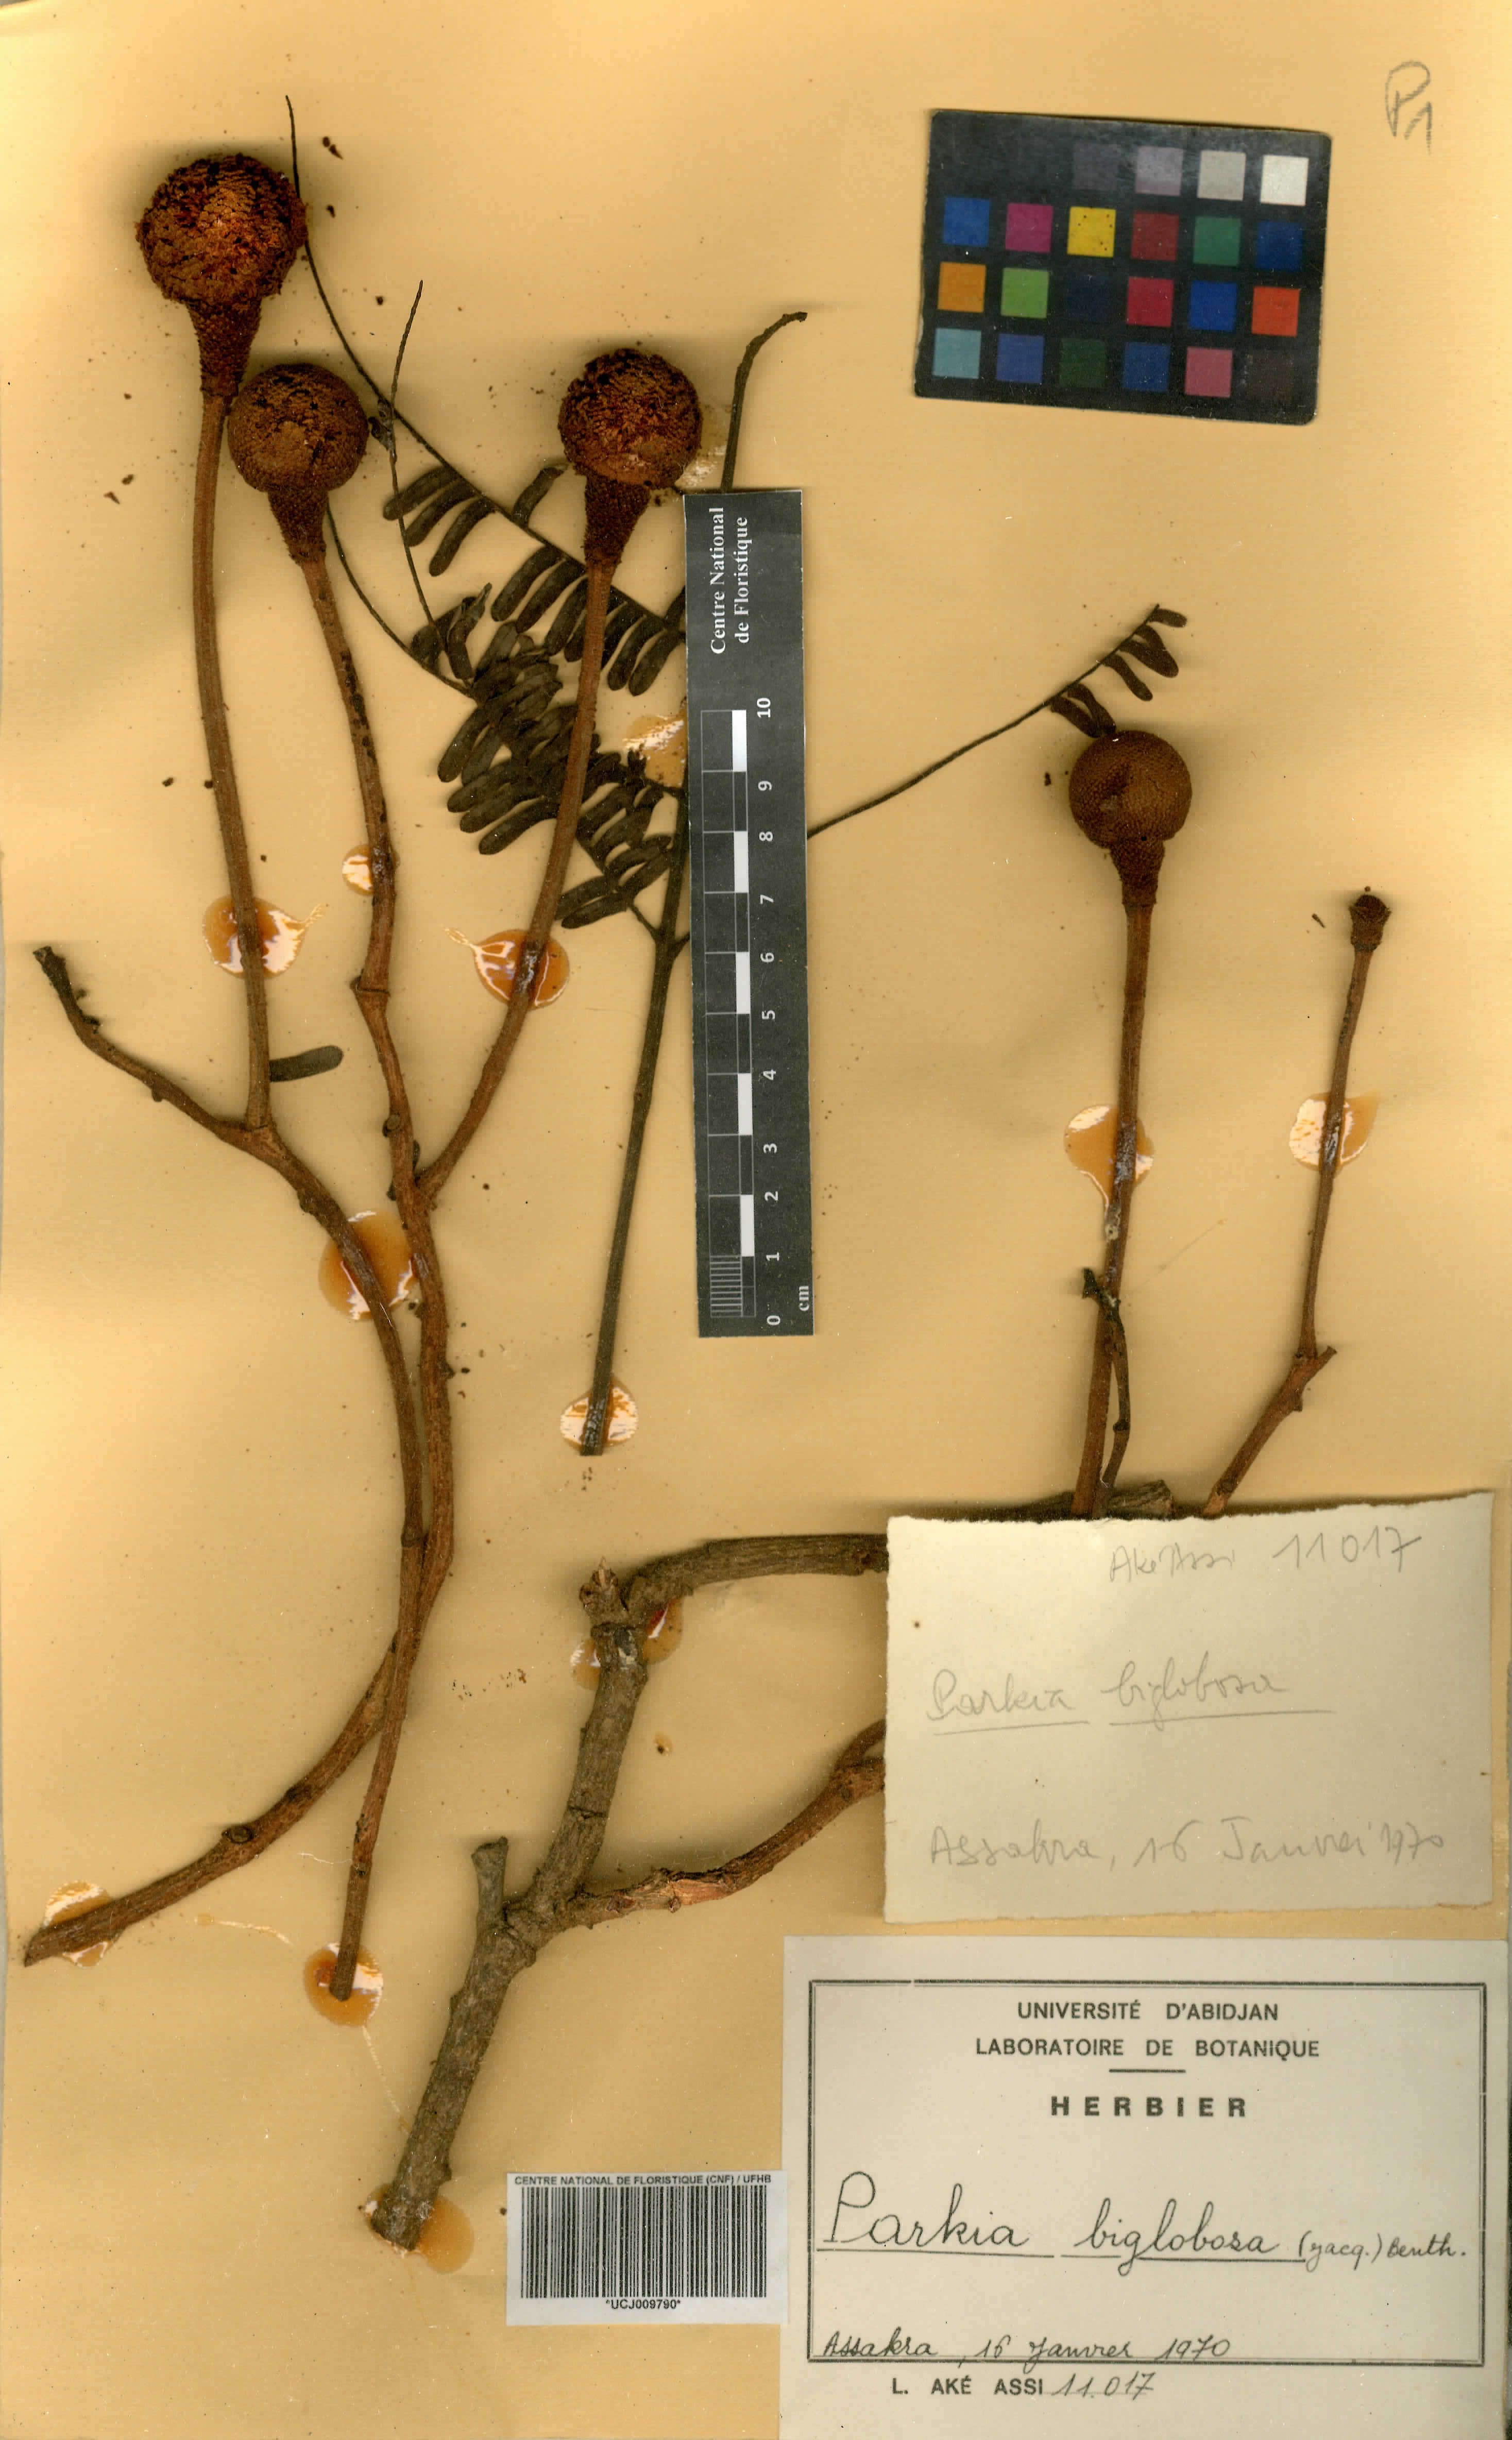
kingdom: Plantae
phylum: Tracheophyta
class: Magnoliopsida
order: Fabales
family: Fabaceae
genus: Parkia
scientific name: Parkia timoriana
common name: Legume
